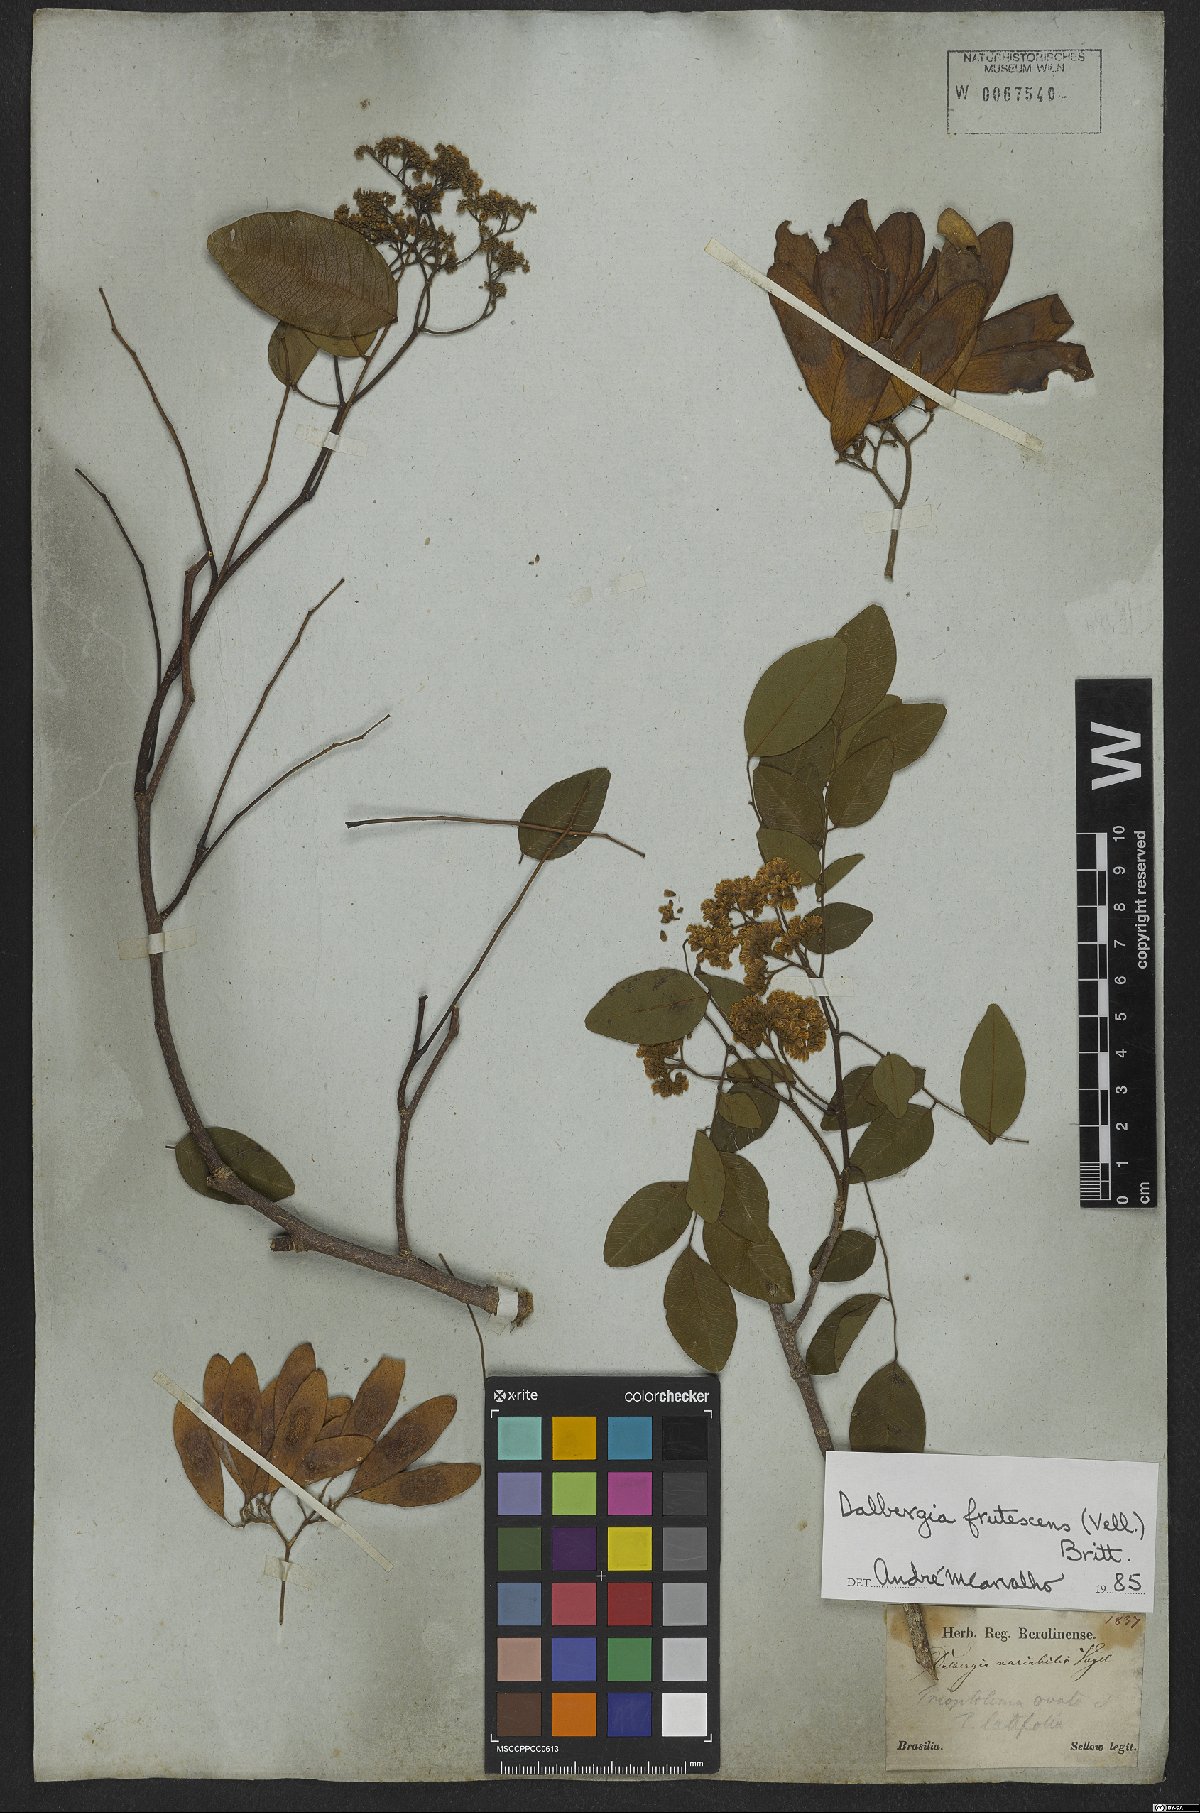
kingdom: Plantae
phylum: Tracheophyta
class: Magnoliopsida
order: Fabales
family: Fabaceae
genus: Dalbergia
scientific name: Dalbergia frutescens
